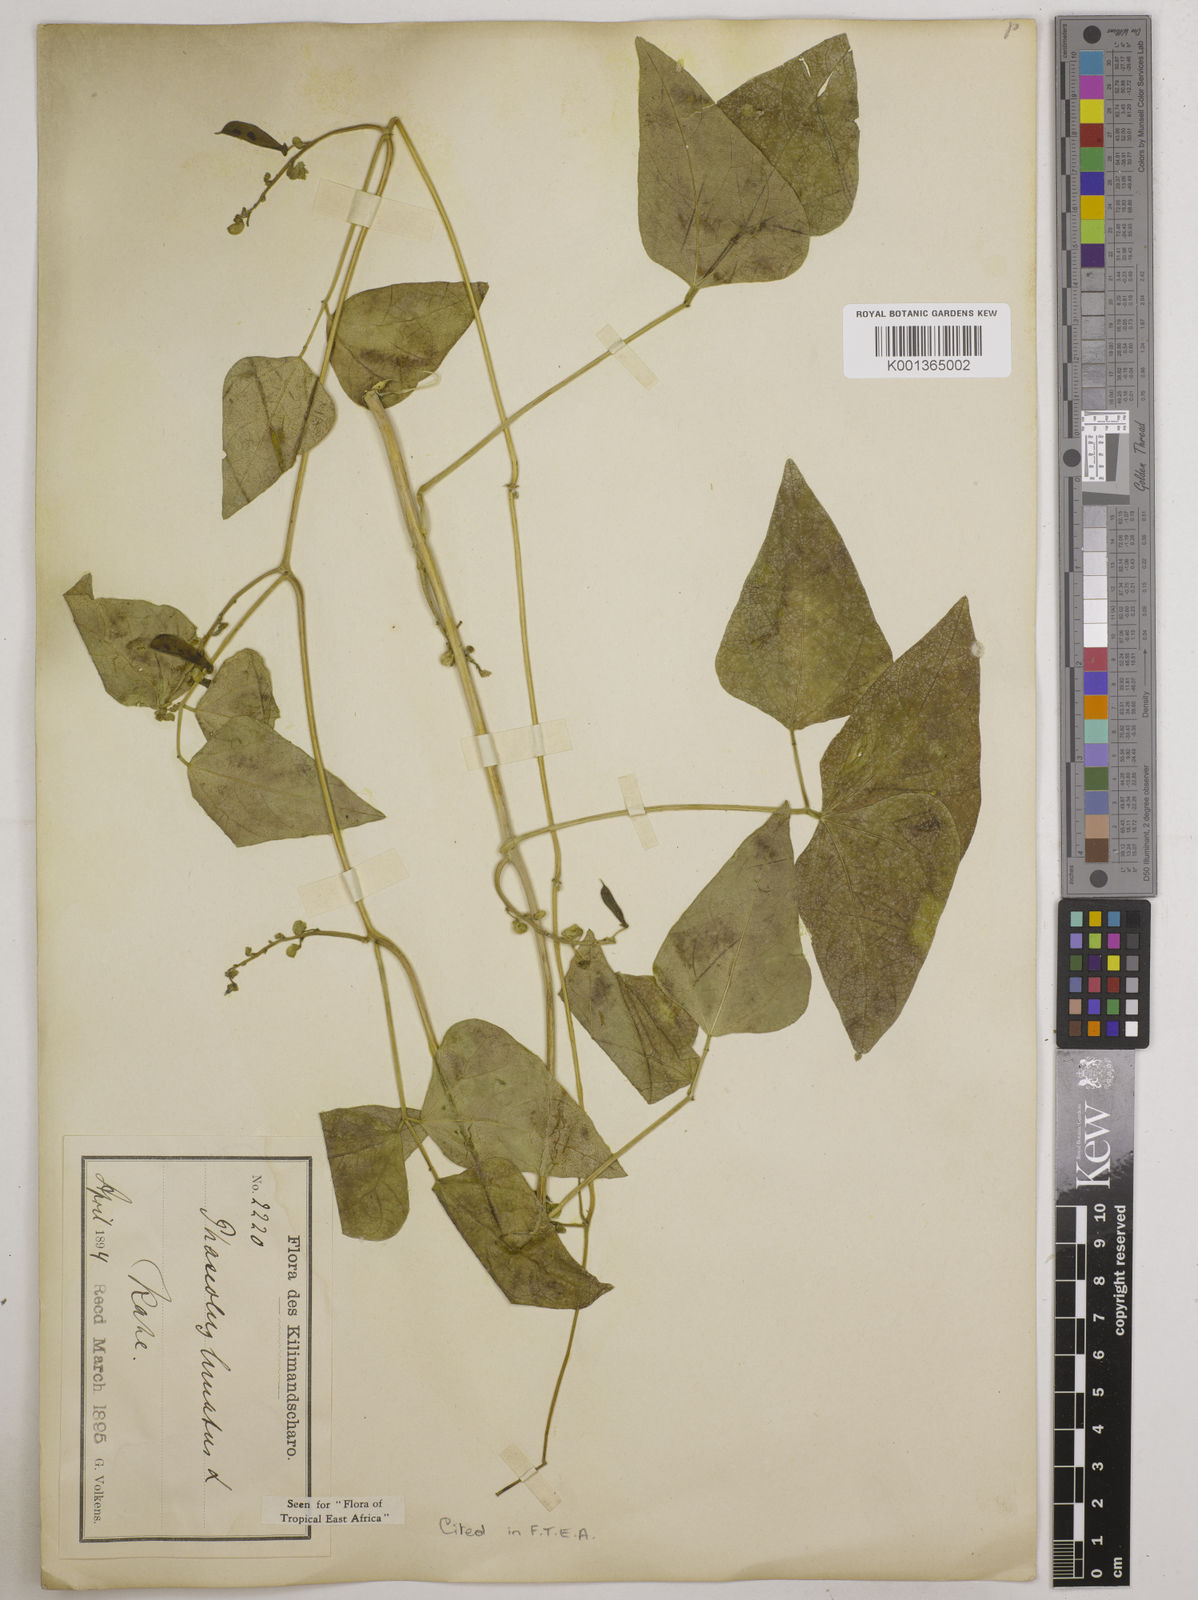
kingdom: Plantae
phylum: Tracheophyta
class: Magnoliopsida
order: Fabales
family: Fabaceae
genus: Phaseolus
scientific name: Phaseolus lunatus
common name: Sieva bean
